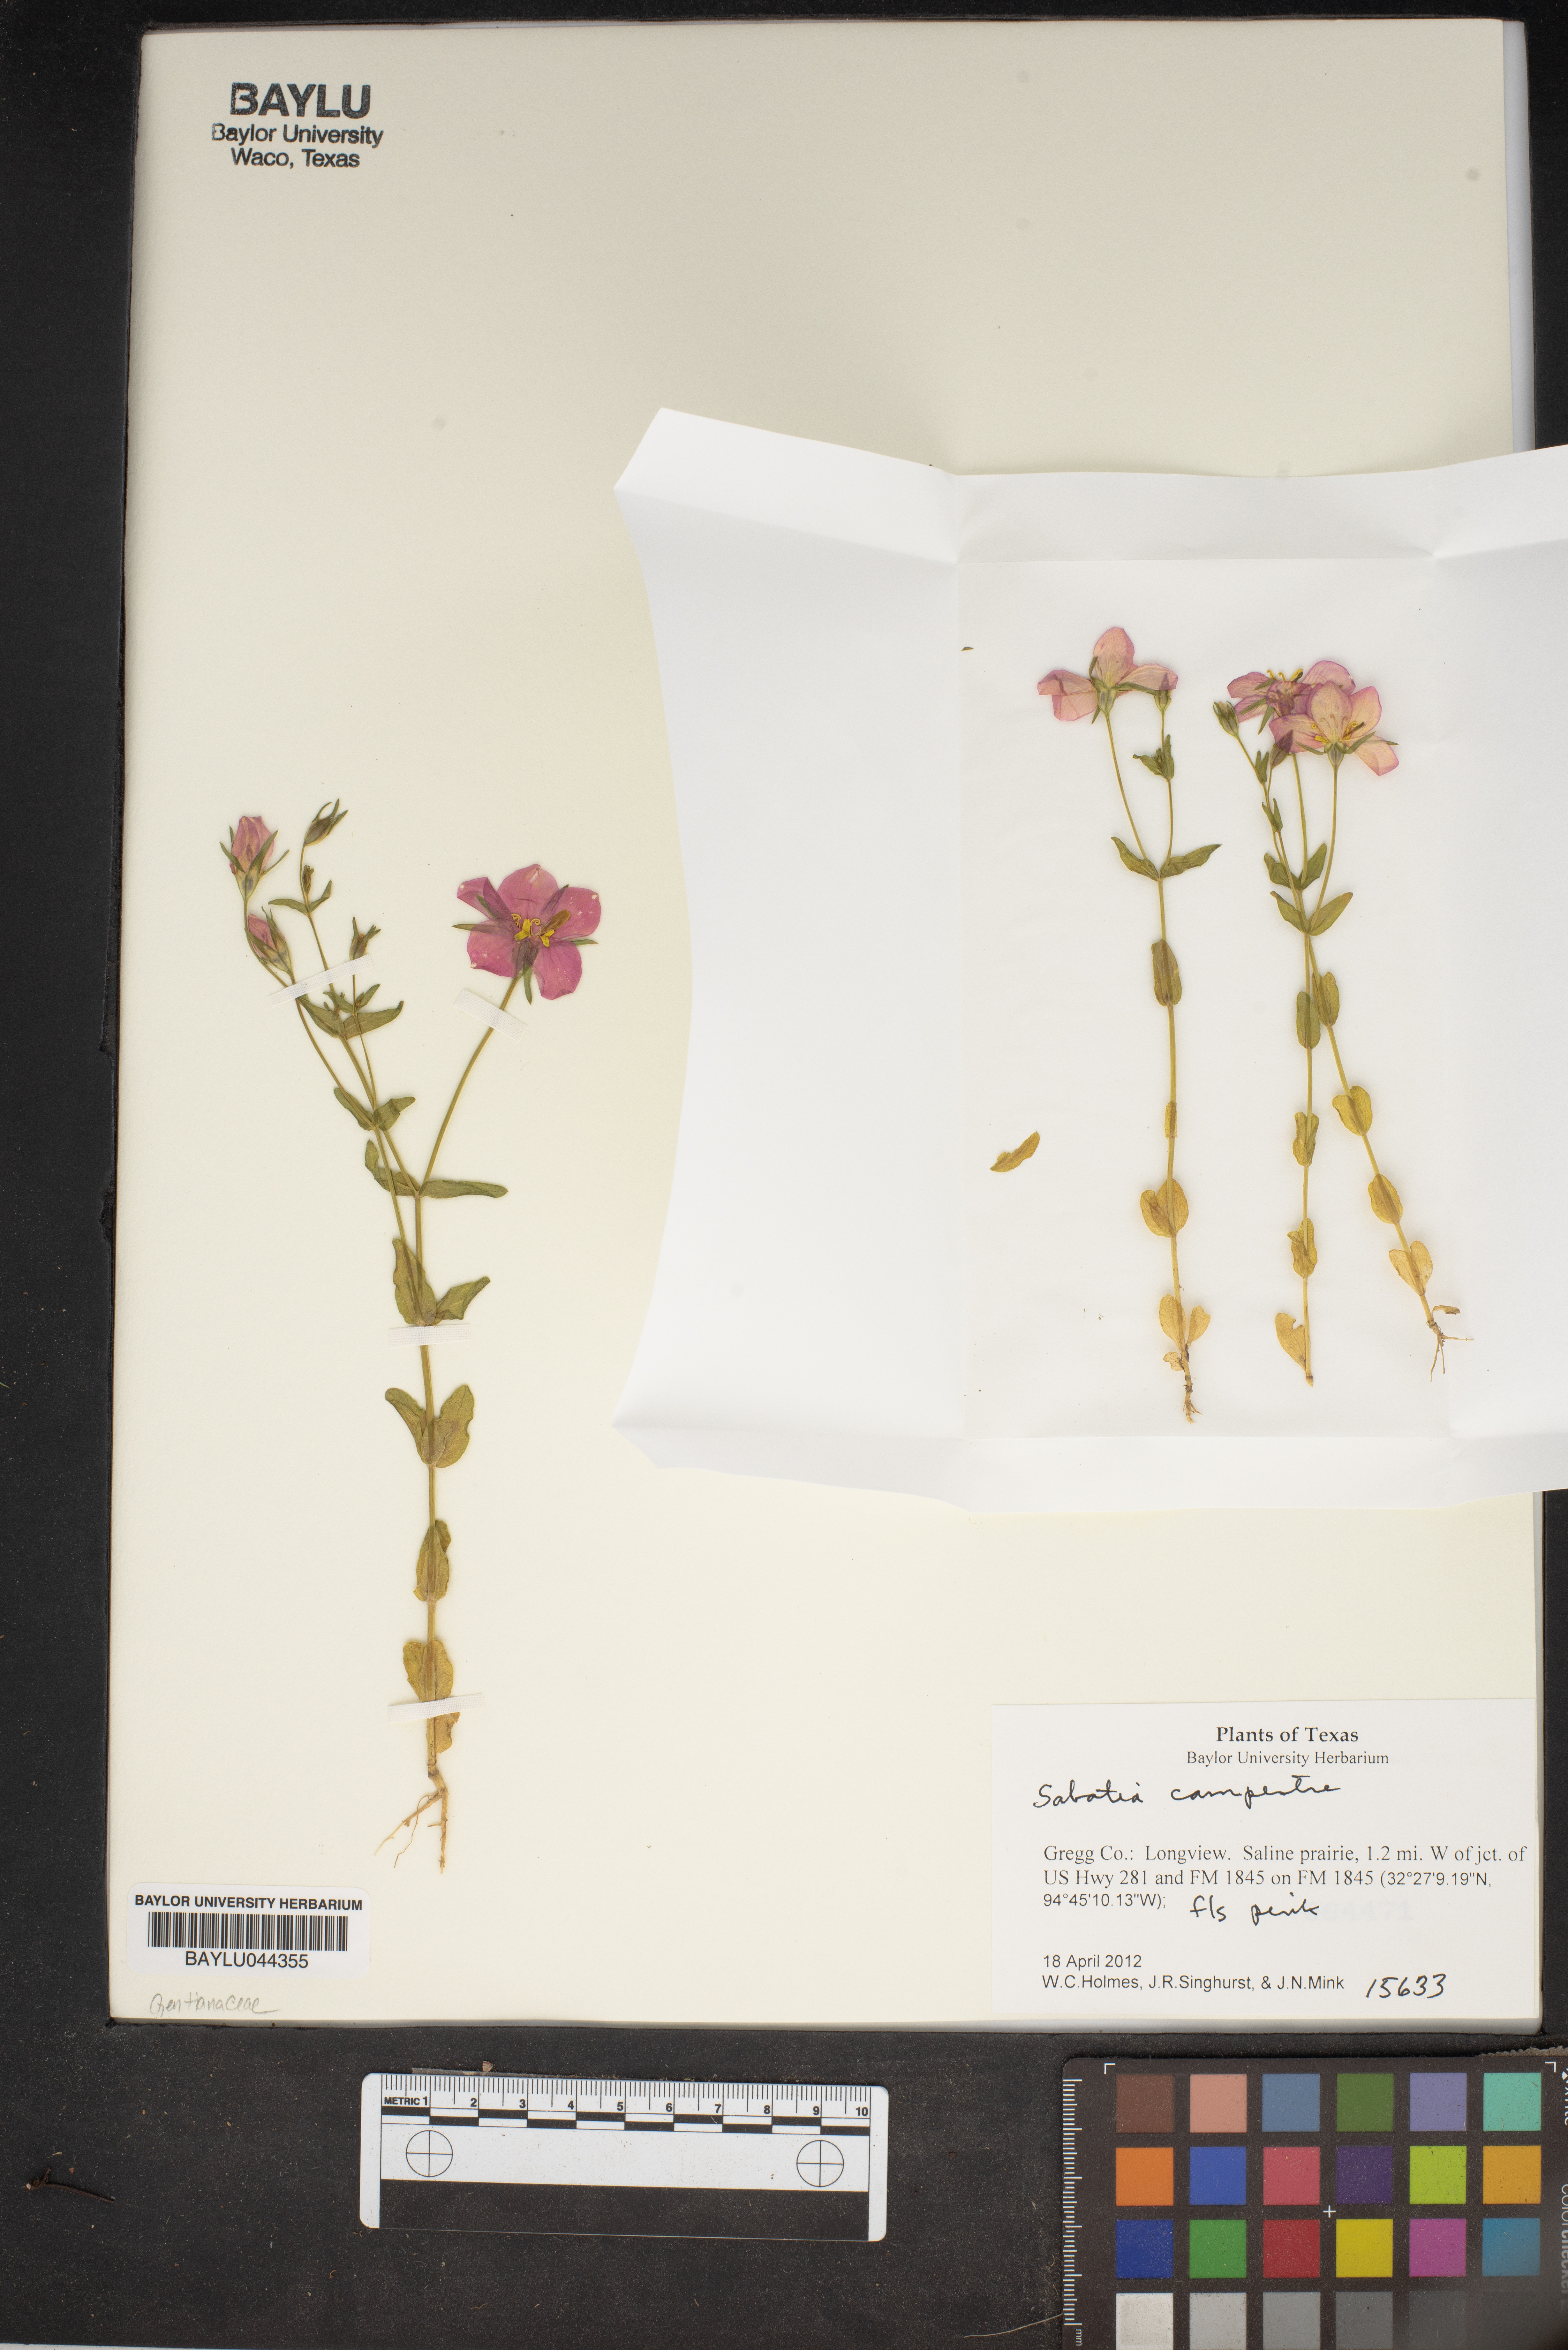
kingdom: Plantae
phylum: Tracheophyta
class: Magnoliopsida
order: Gentianales
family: Gentianaceae
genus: Sabatia
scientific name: Sabatia campestris
